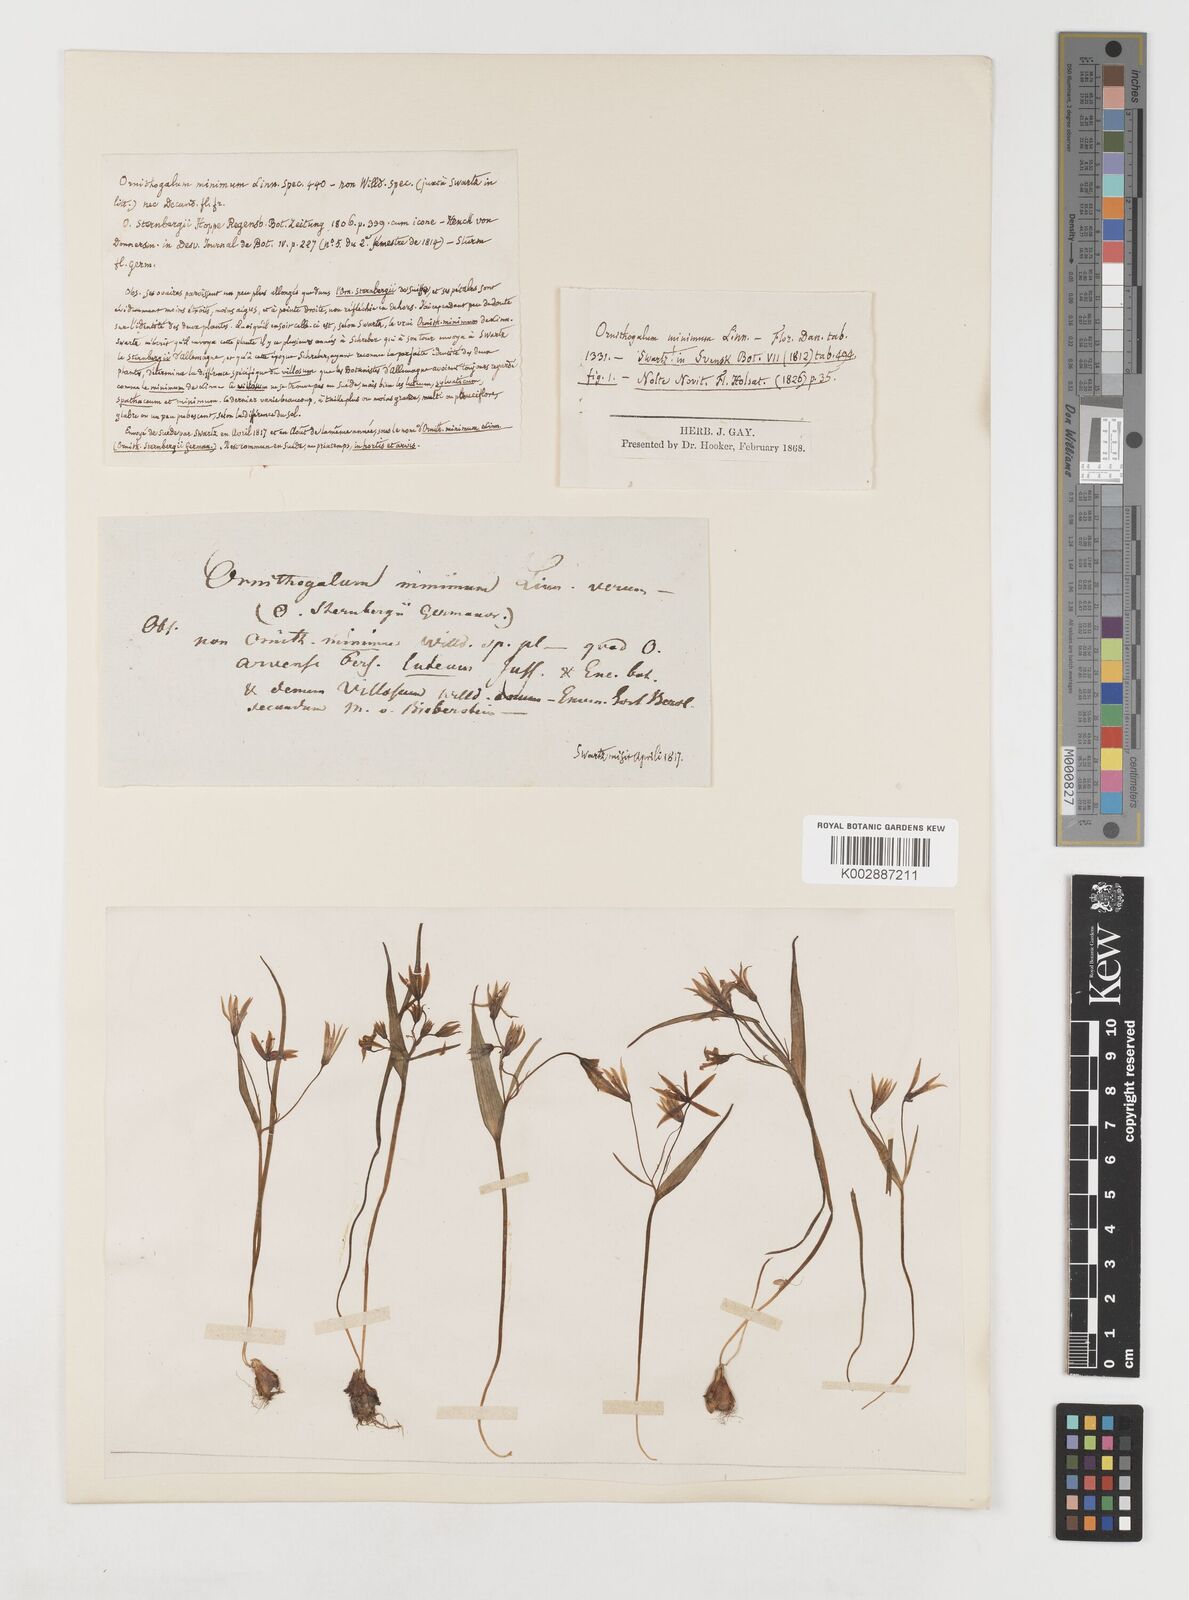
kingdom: Plantae
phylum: Tracheophyta
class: Liliopsida
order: Liliales
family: Liliaceae
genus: Gagea
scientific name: Gagea minima
